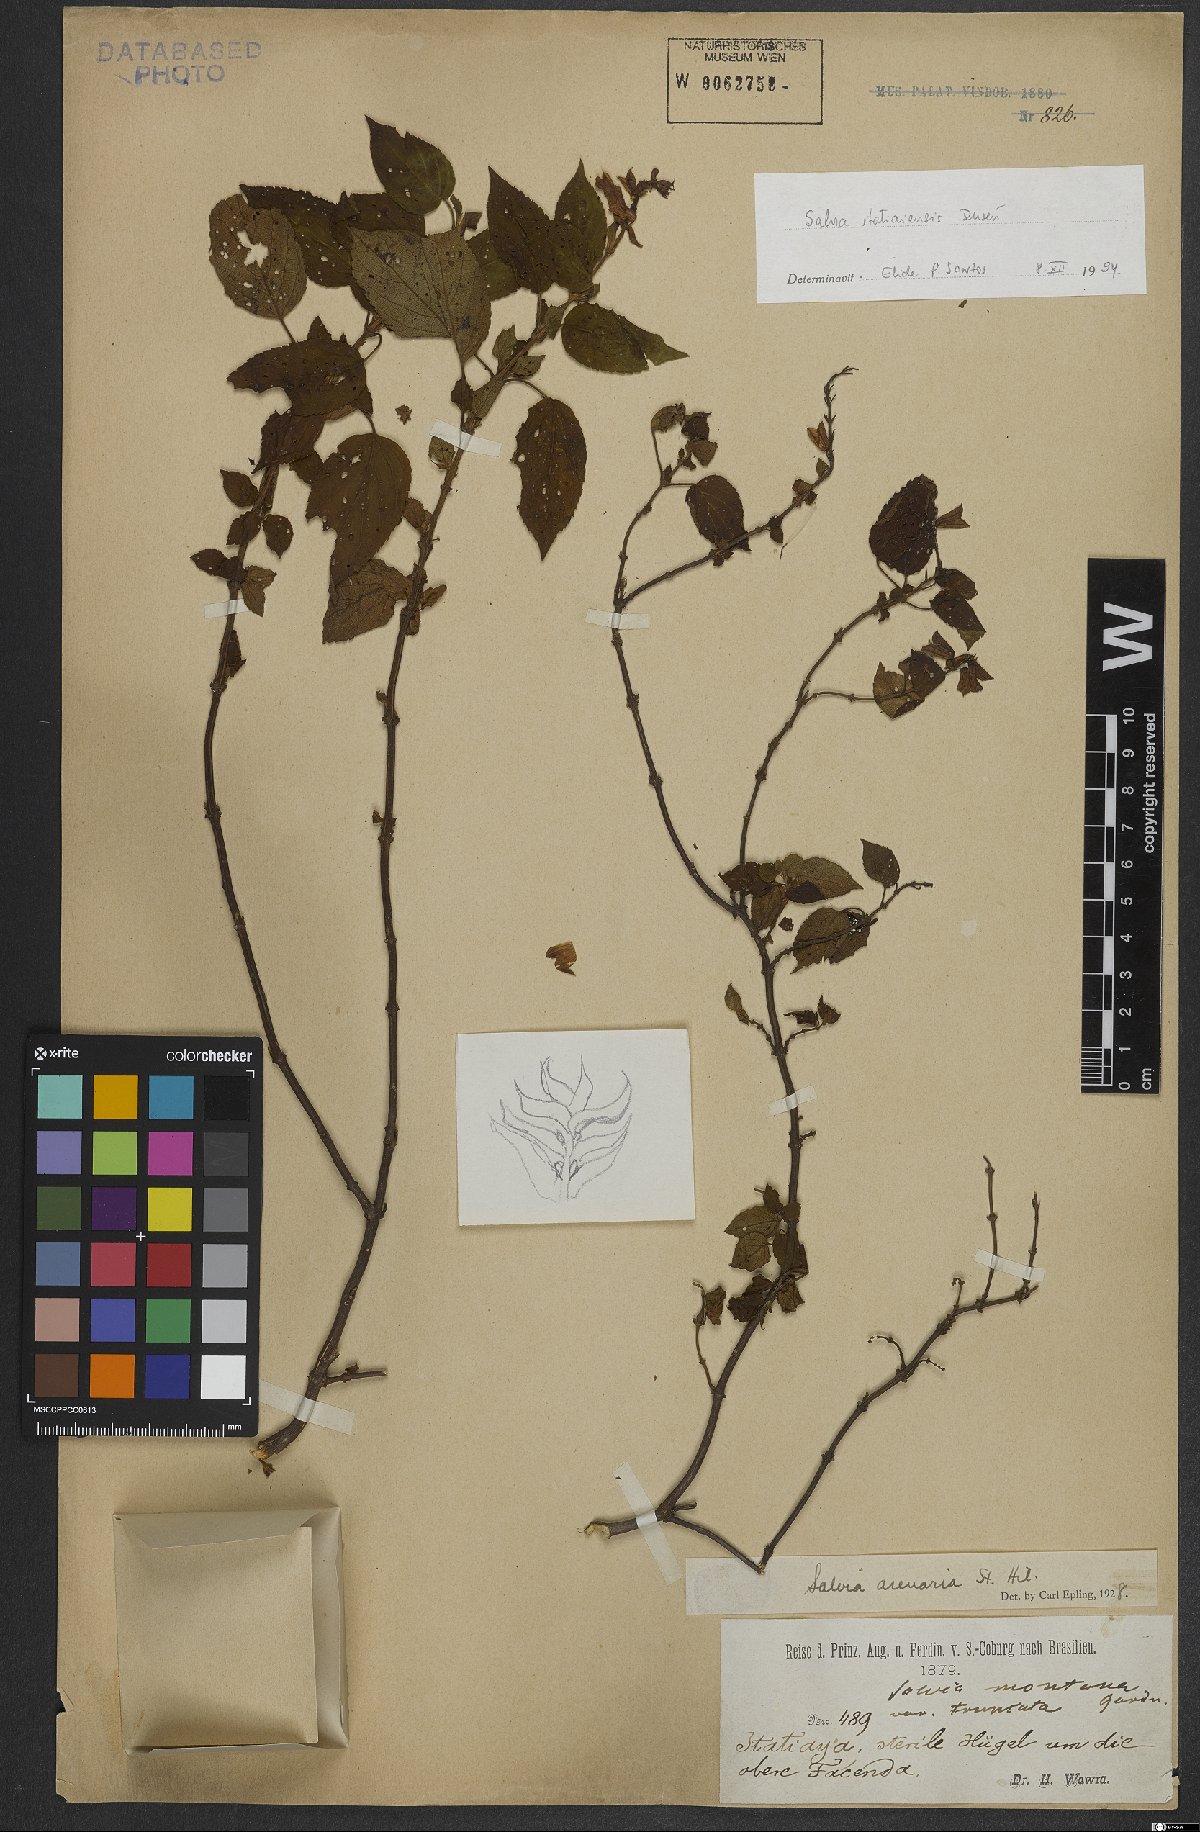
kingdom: Plantae
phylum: Tracheophyta
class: Magnoliopsida
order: Lamiales
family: Lamiaceae
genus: Salvia
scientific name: Salvia arenaria
